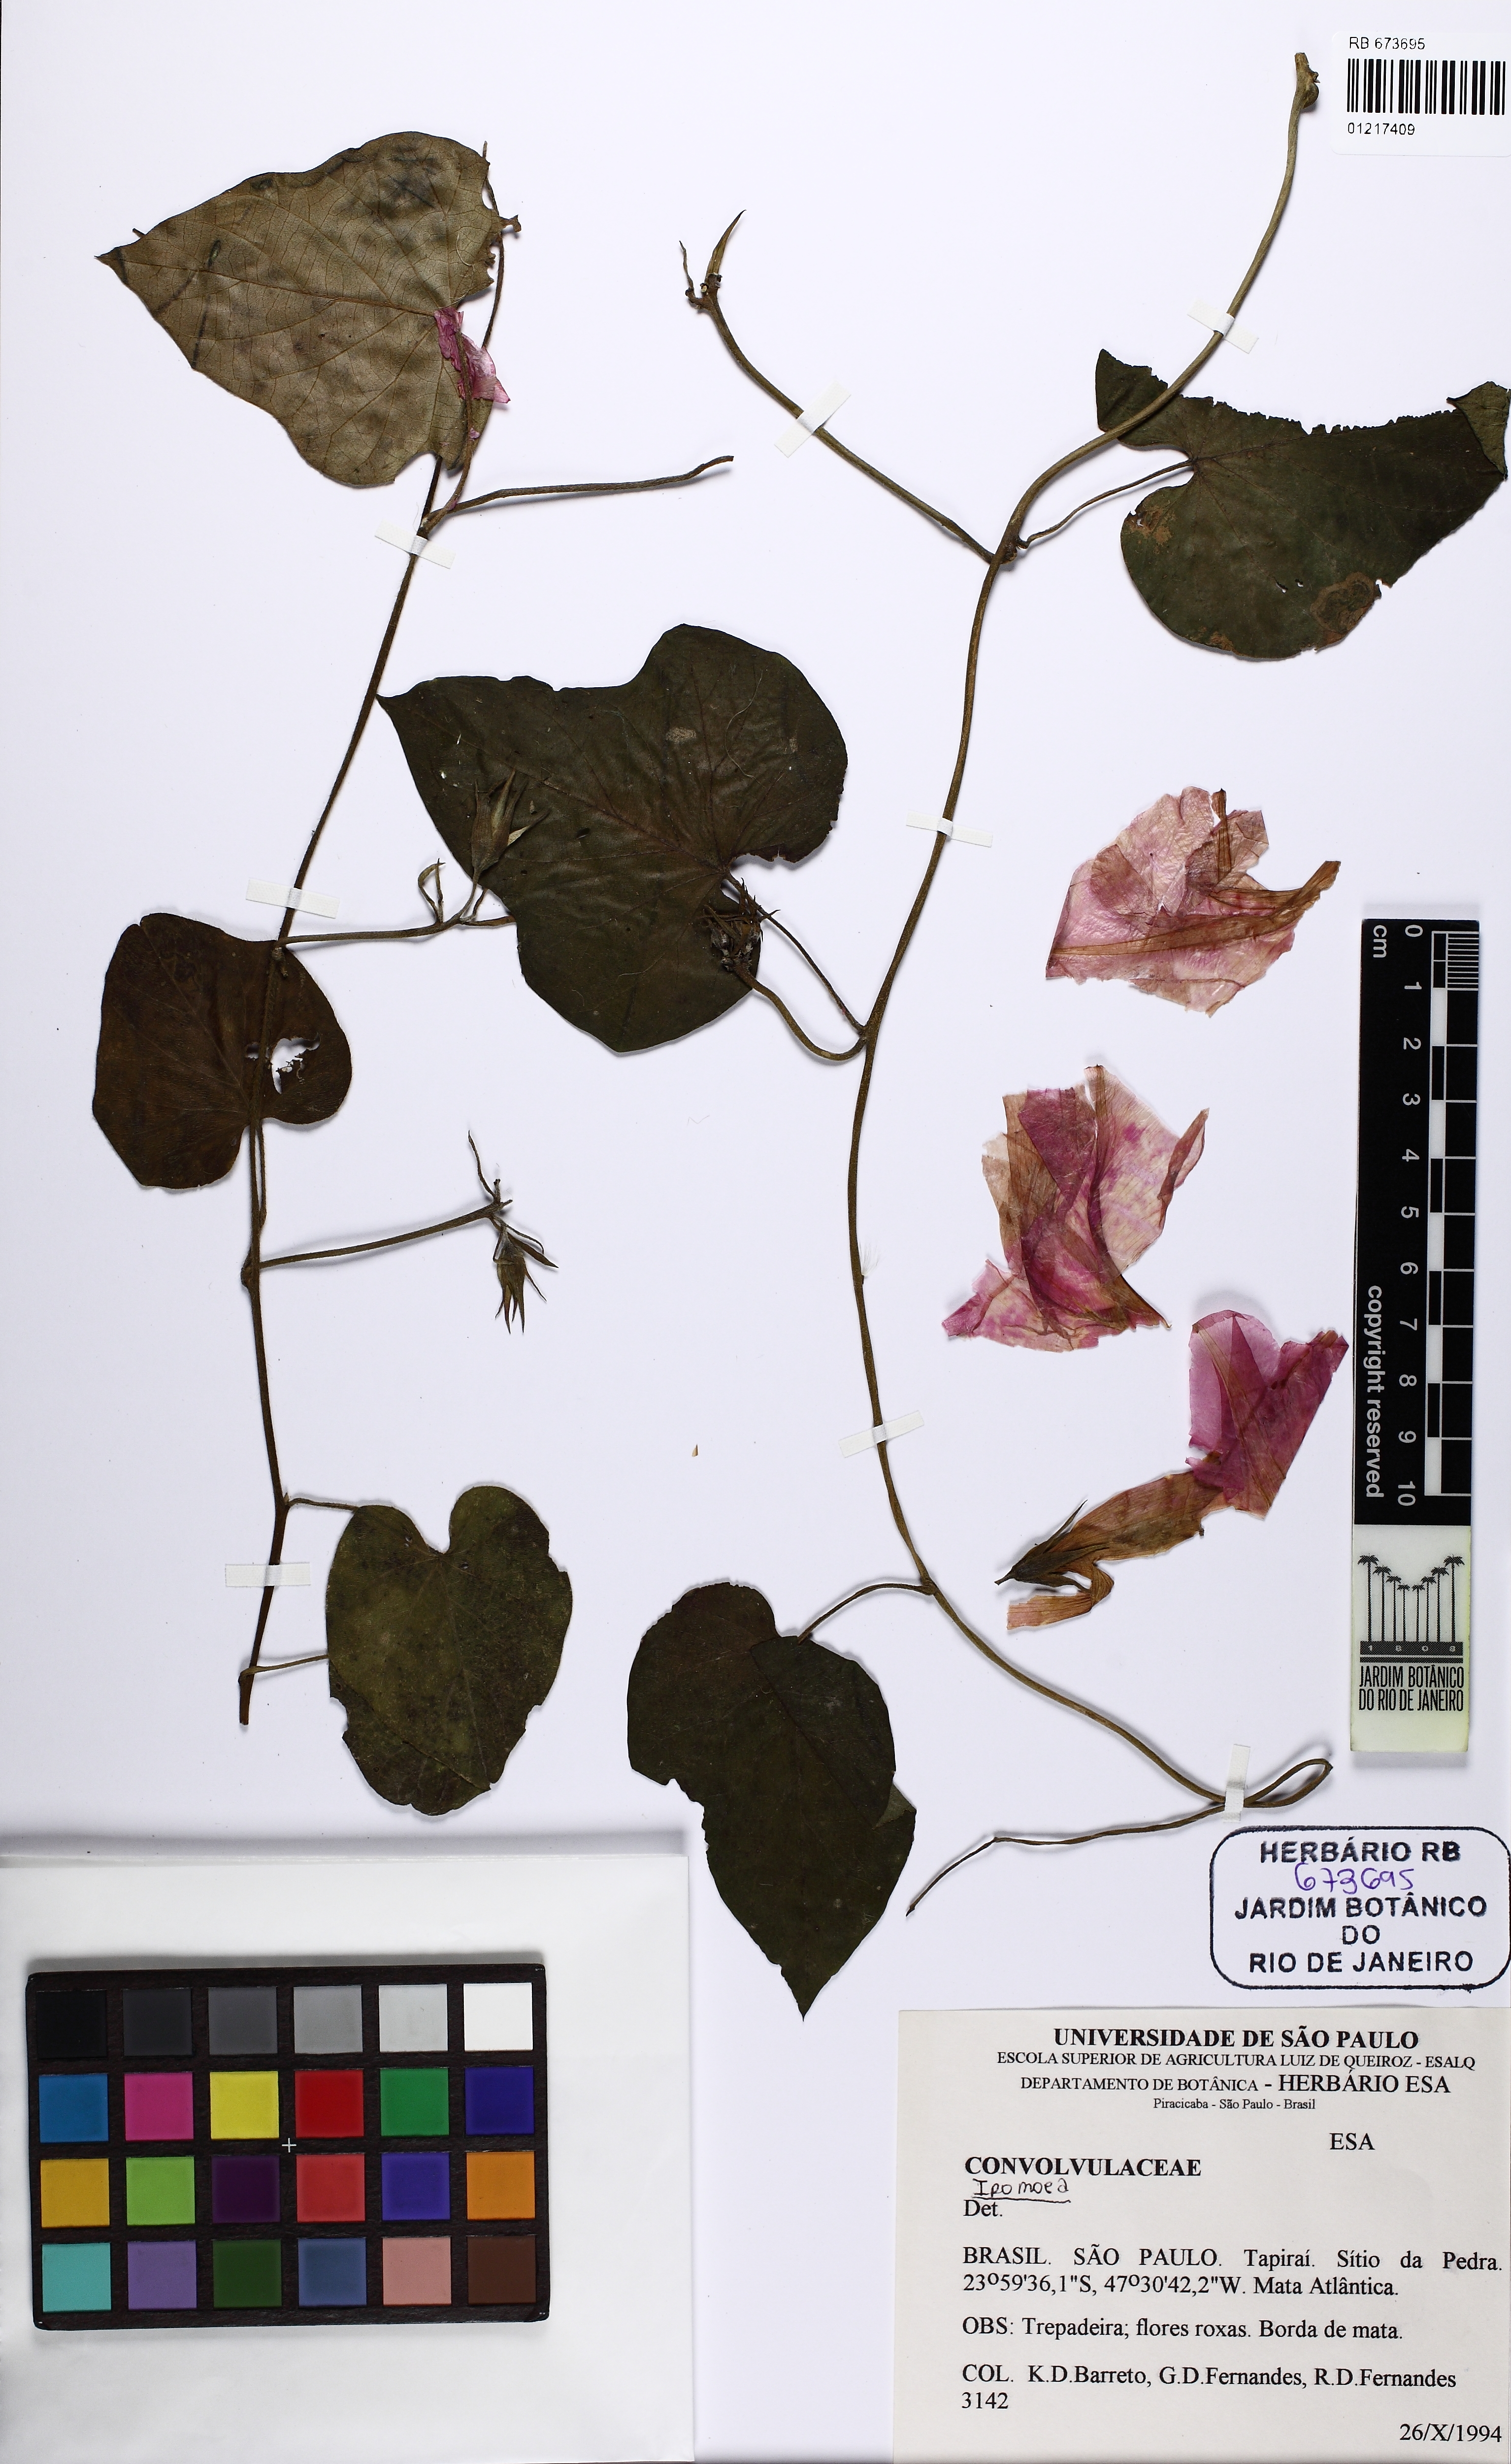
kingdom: Plantae
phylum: Tracheophyta
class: Magnoliopsida
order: Solanales
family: Convolvulaceae
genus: Ipomoea
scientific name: Ipomoea indica
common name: Blue dawnflower
